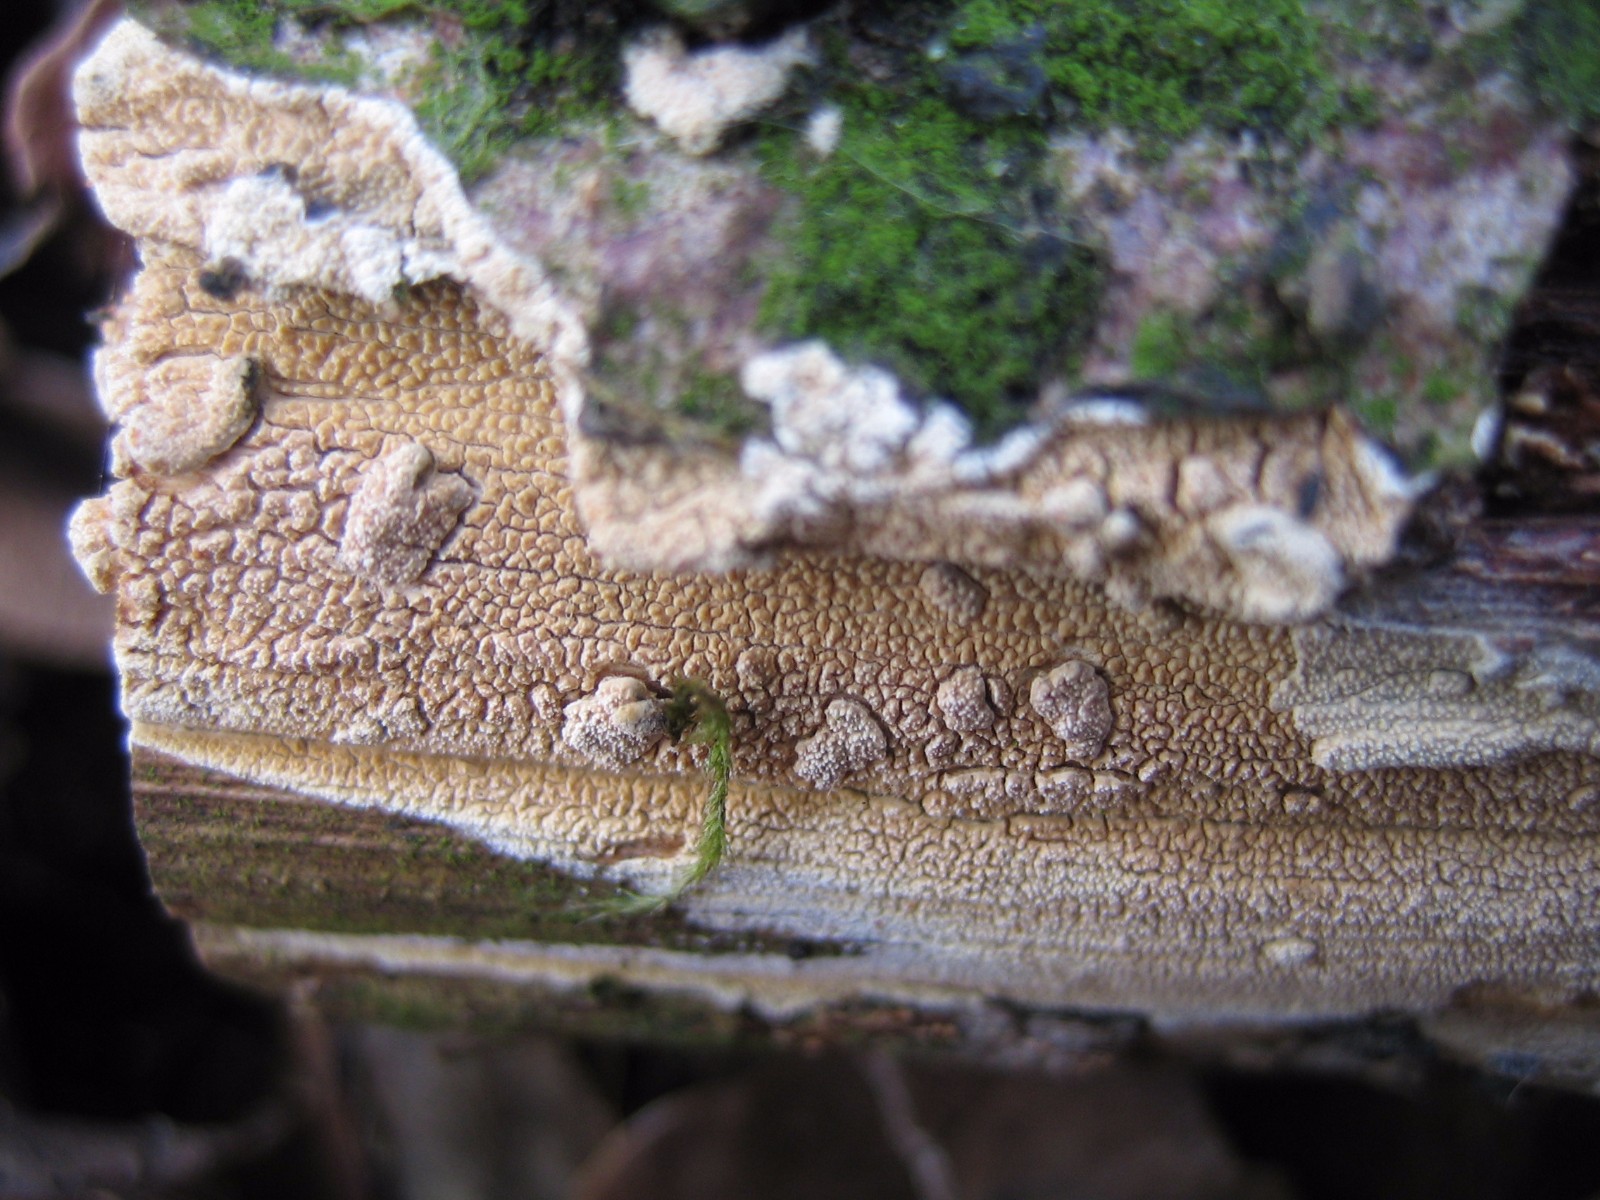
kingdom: Fungi
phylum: Basidiomycota
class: Agaricomycetes
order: Corticiales
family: Corticiaceae
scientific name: Corticiaceae
